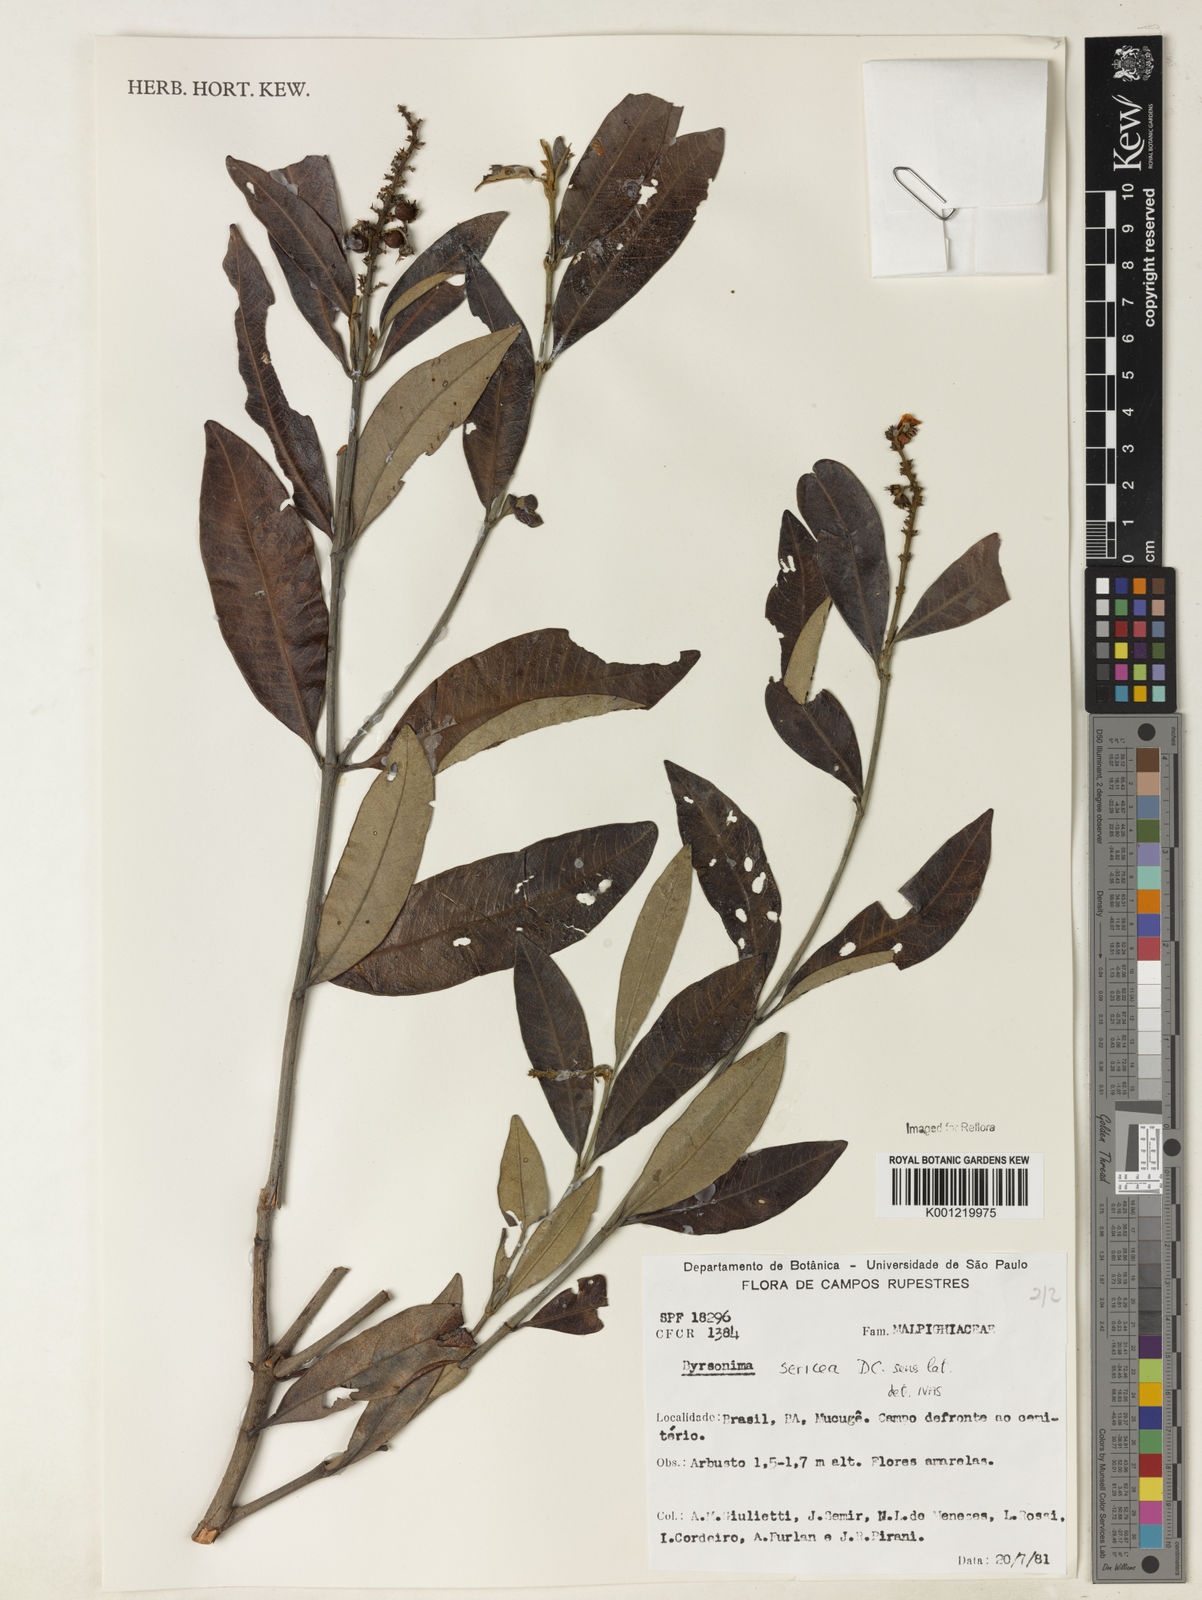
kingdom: Plantae
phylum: Tracheophyta
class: Magnoliopsida
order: Malpighiales
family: Malpighiaceae
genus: Byrsonima
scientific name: Byrsonima sericea
